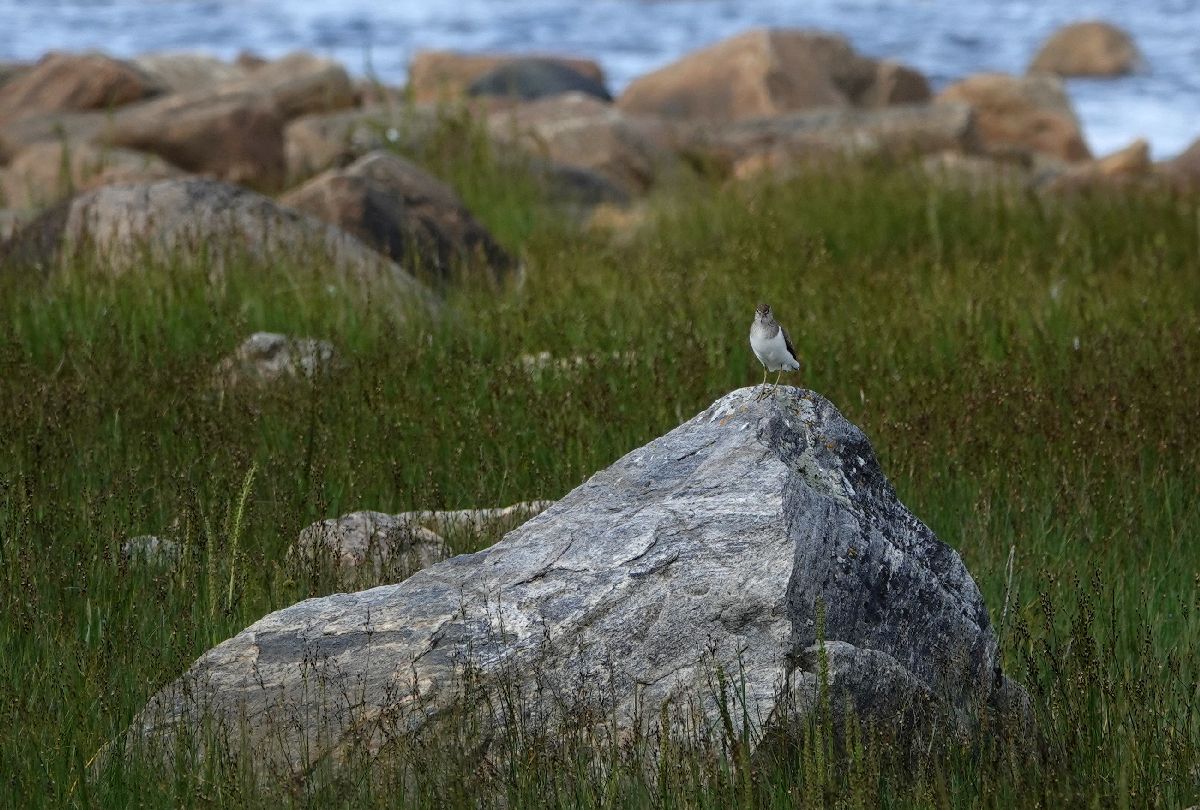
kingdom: Animalia
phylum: Chordata
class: Aves
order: Charadriiformes
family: Scolopacidae
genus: Actitis
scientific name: Actitis hypoleucos
